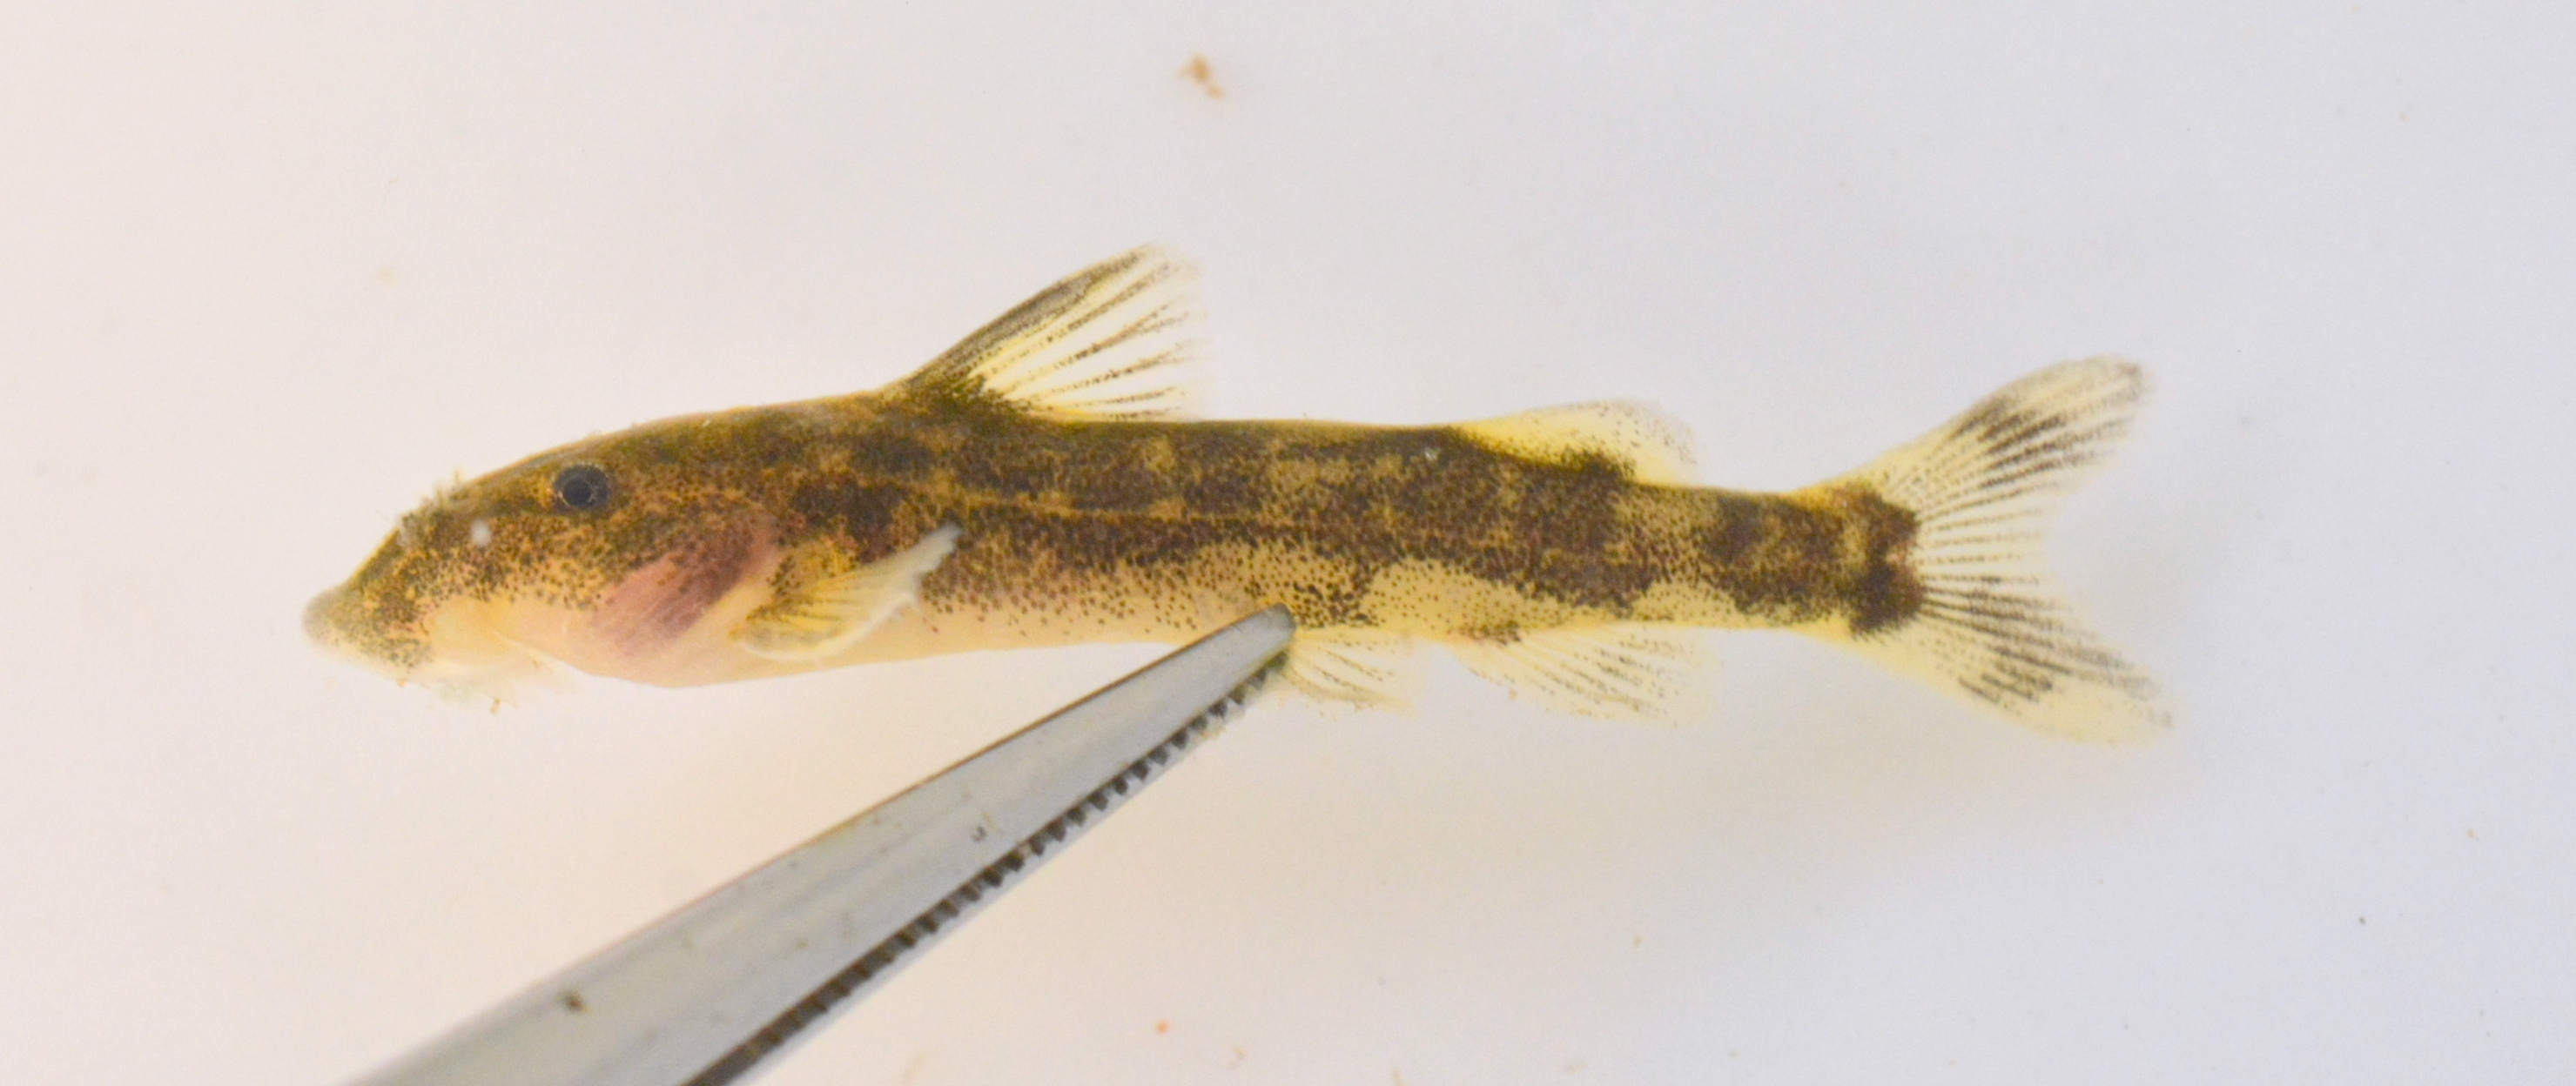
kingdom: Animalia
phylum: Chordata
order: Siluriformes
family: Mochokidae
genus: Chiloglanis
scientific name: Chiloglanis fasciatus
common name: Okavango suckermouth
